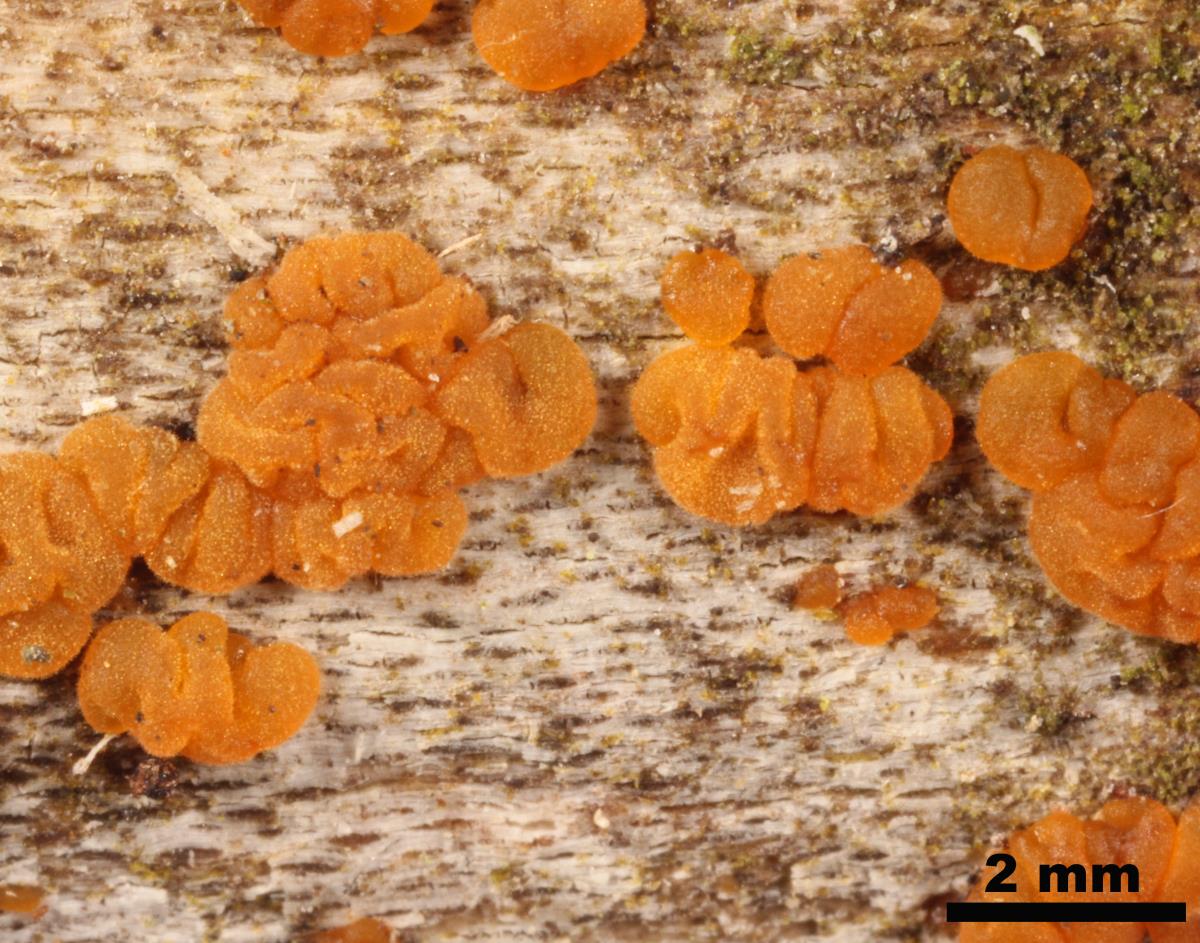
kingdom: Fungi
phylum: Basidiomycota
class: Dacrymycetes
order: Dacrymycetales
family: Dacrymycetaceae
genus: Dacrymyces
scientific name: Dacrymyces novae-zelandiae
